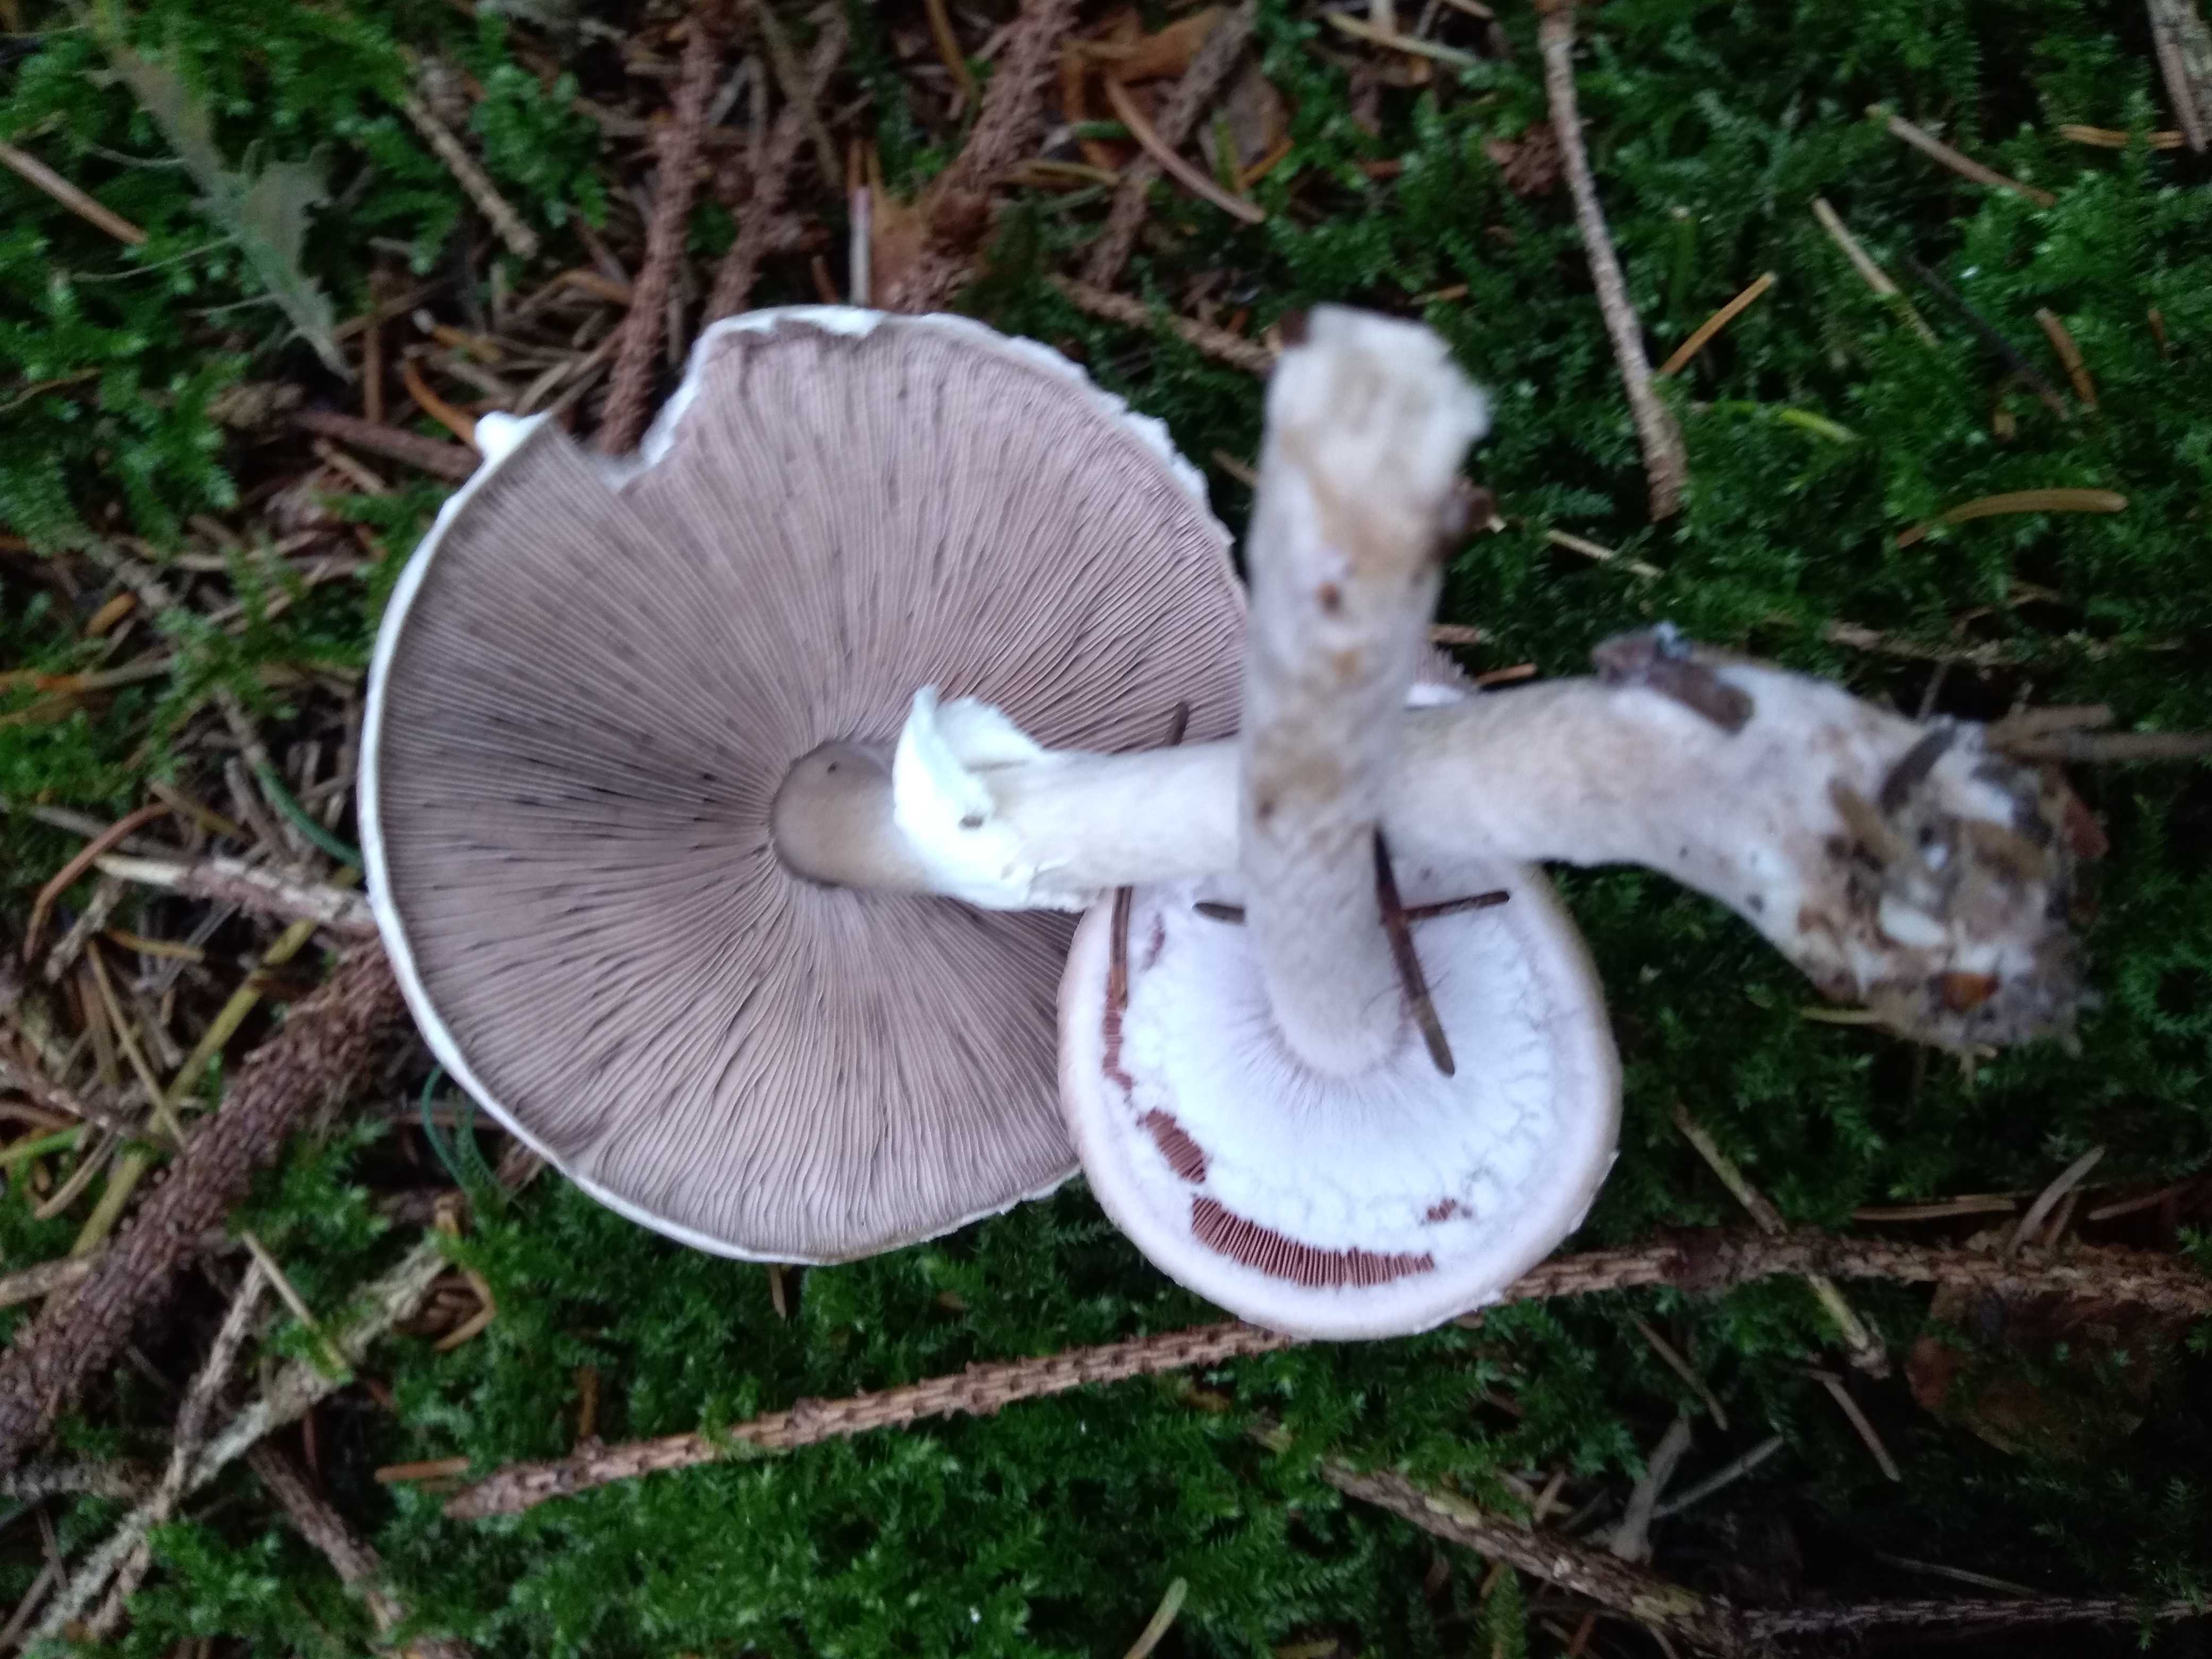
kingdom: Fungi
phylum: Basidiomycota
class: Agaricomycetes
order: Agaricales
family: Agaricaceae
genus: Agaricus
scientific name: Agaricus impudicus
